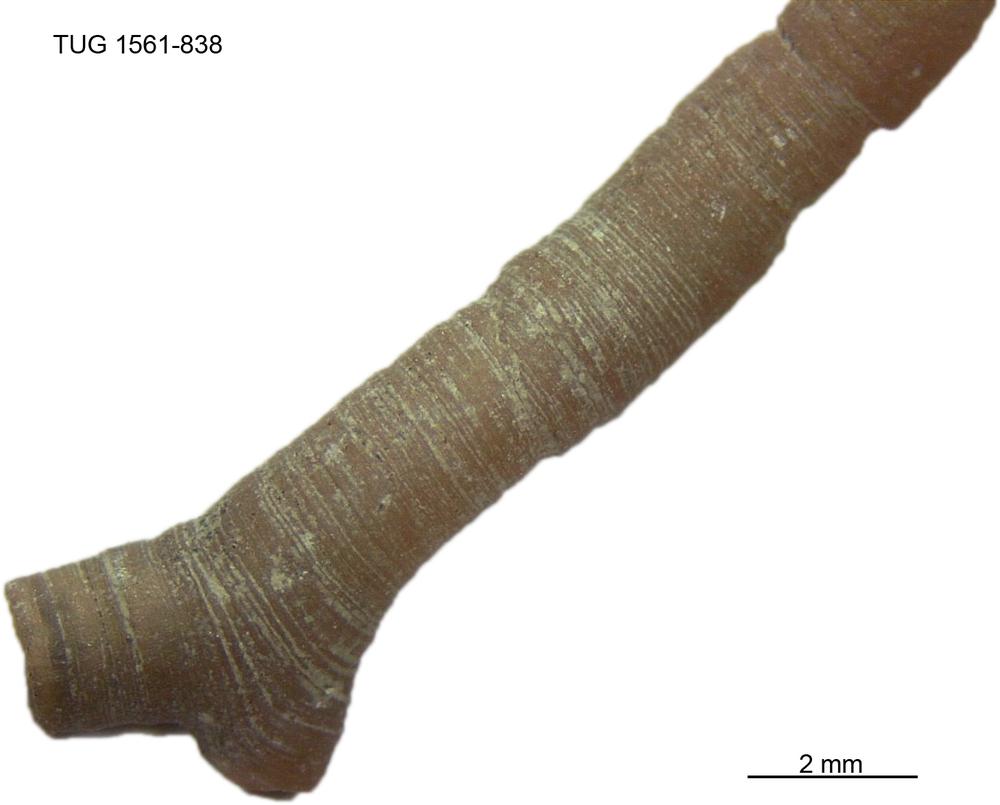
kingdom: Animalia
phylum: Bryozoa
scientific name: Bryozoa
